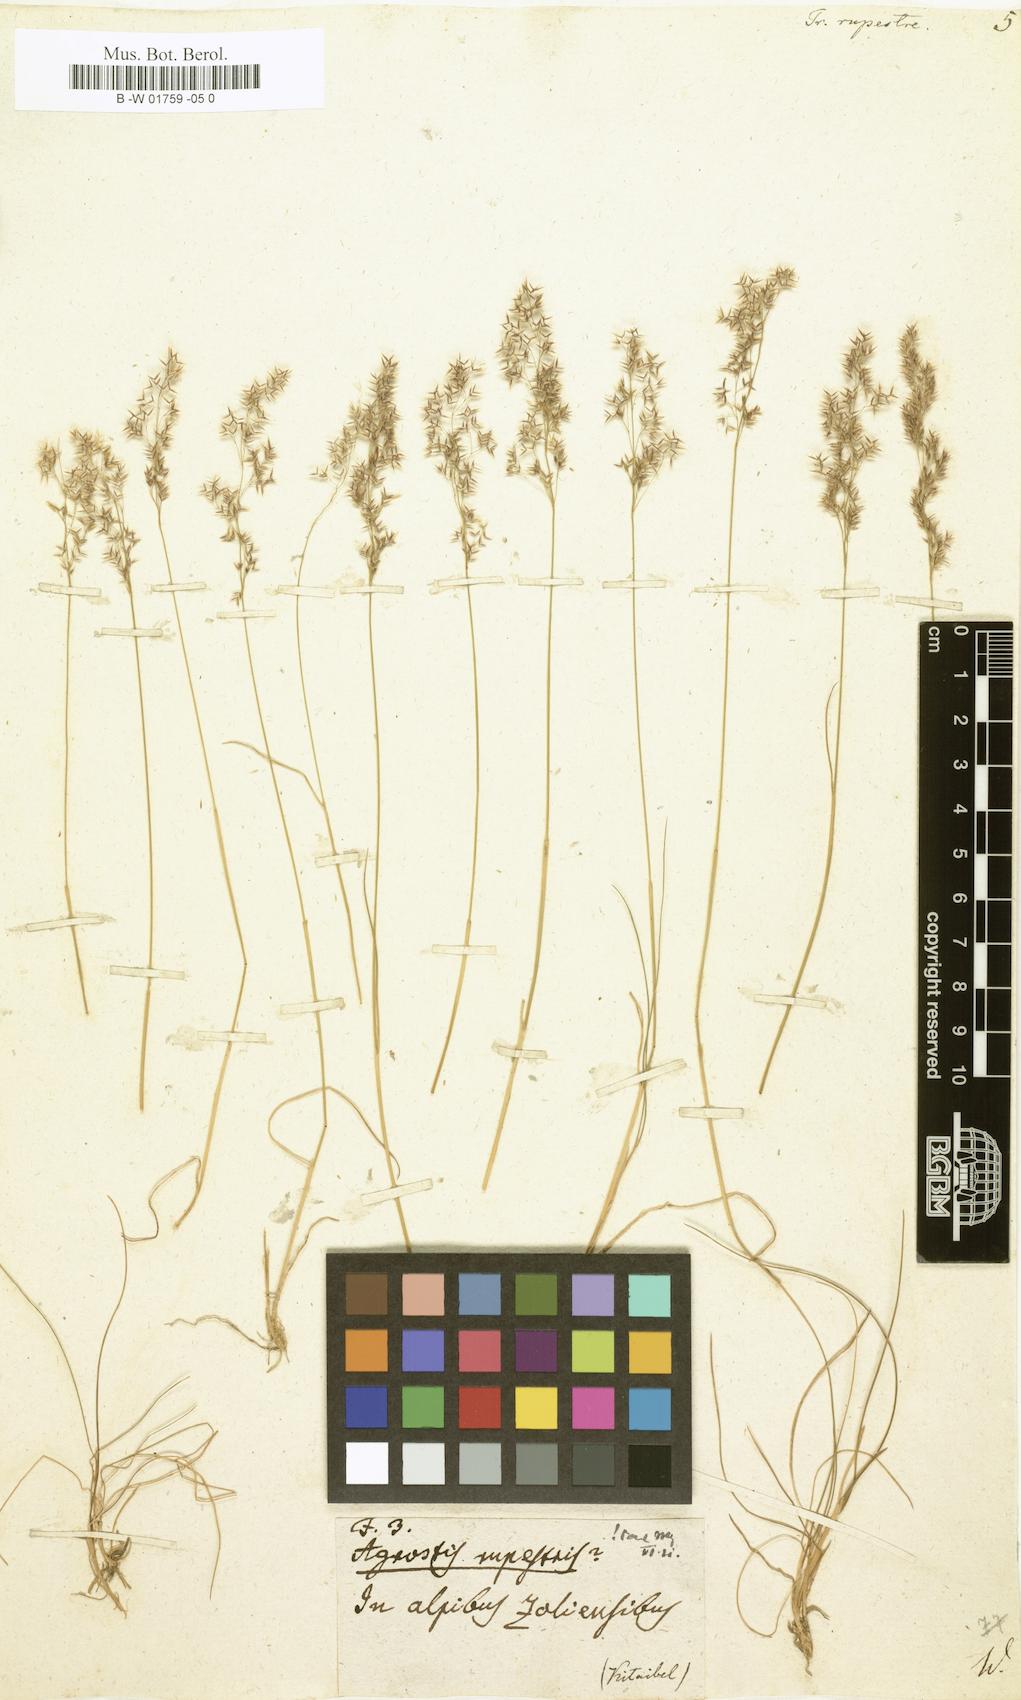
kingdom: Plantae
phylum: Tracheophyta
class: Liliopsida
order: Poales
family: Poaceae
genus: Alpagrostis
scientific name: Alpagrostis alpina
